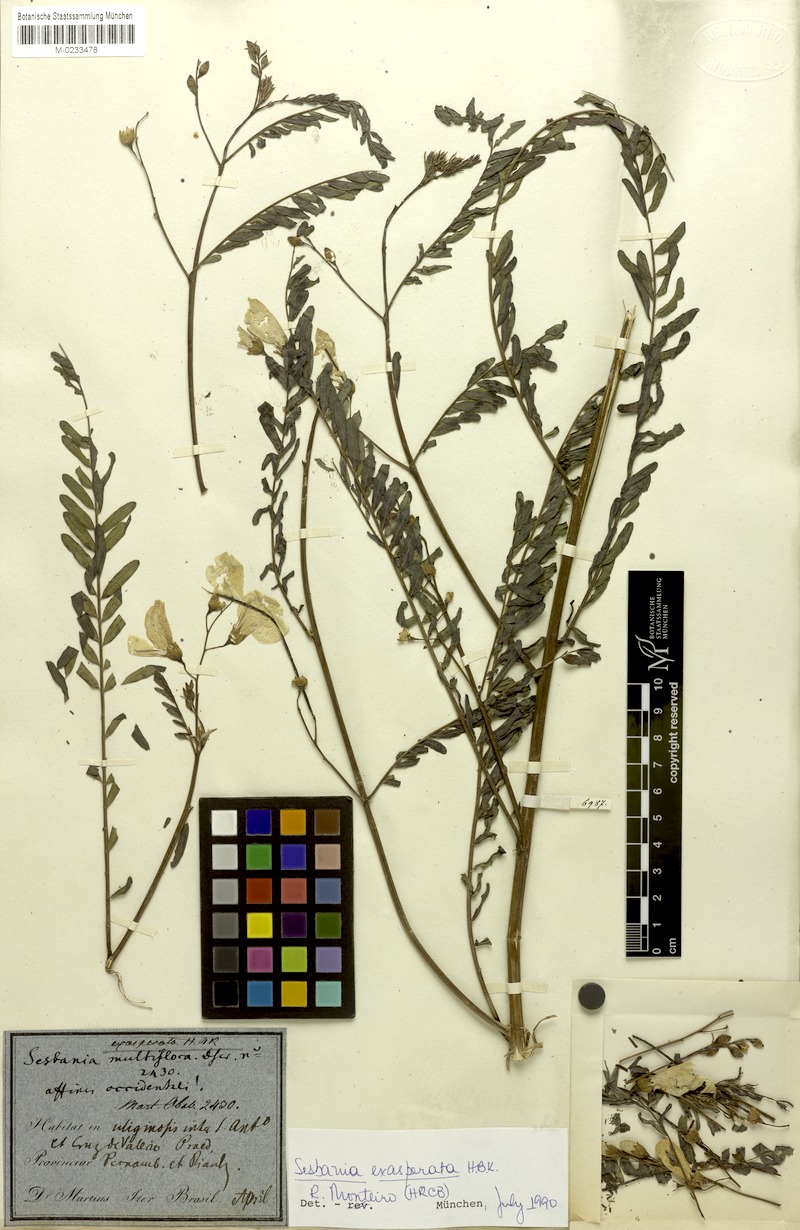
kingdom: Plantae
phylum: Tracheophyta
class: Magnoliopsida
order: Fabales
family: Fabaceae
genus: Sesbania
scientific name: Sesbania exasperata
